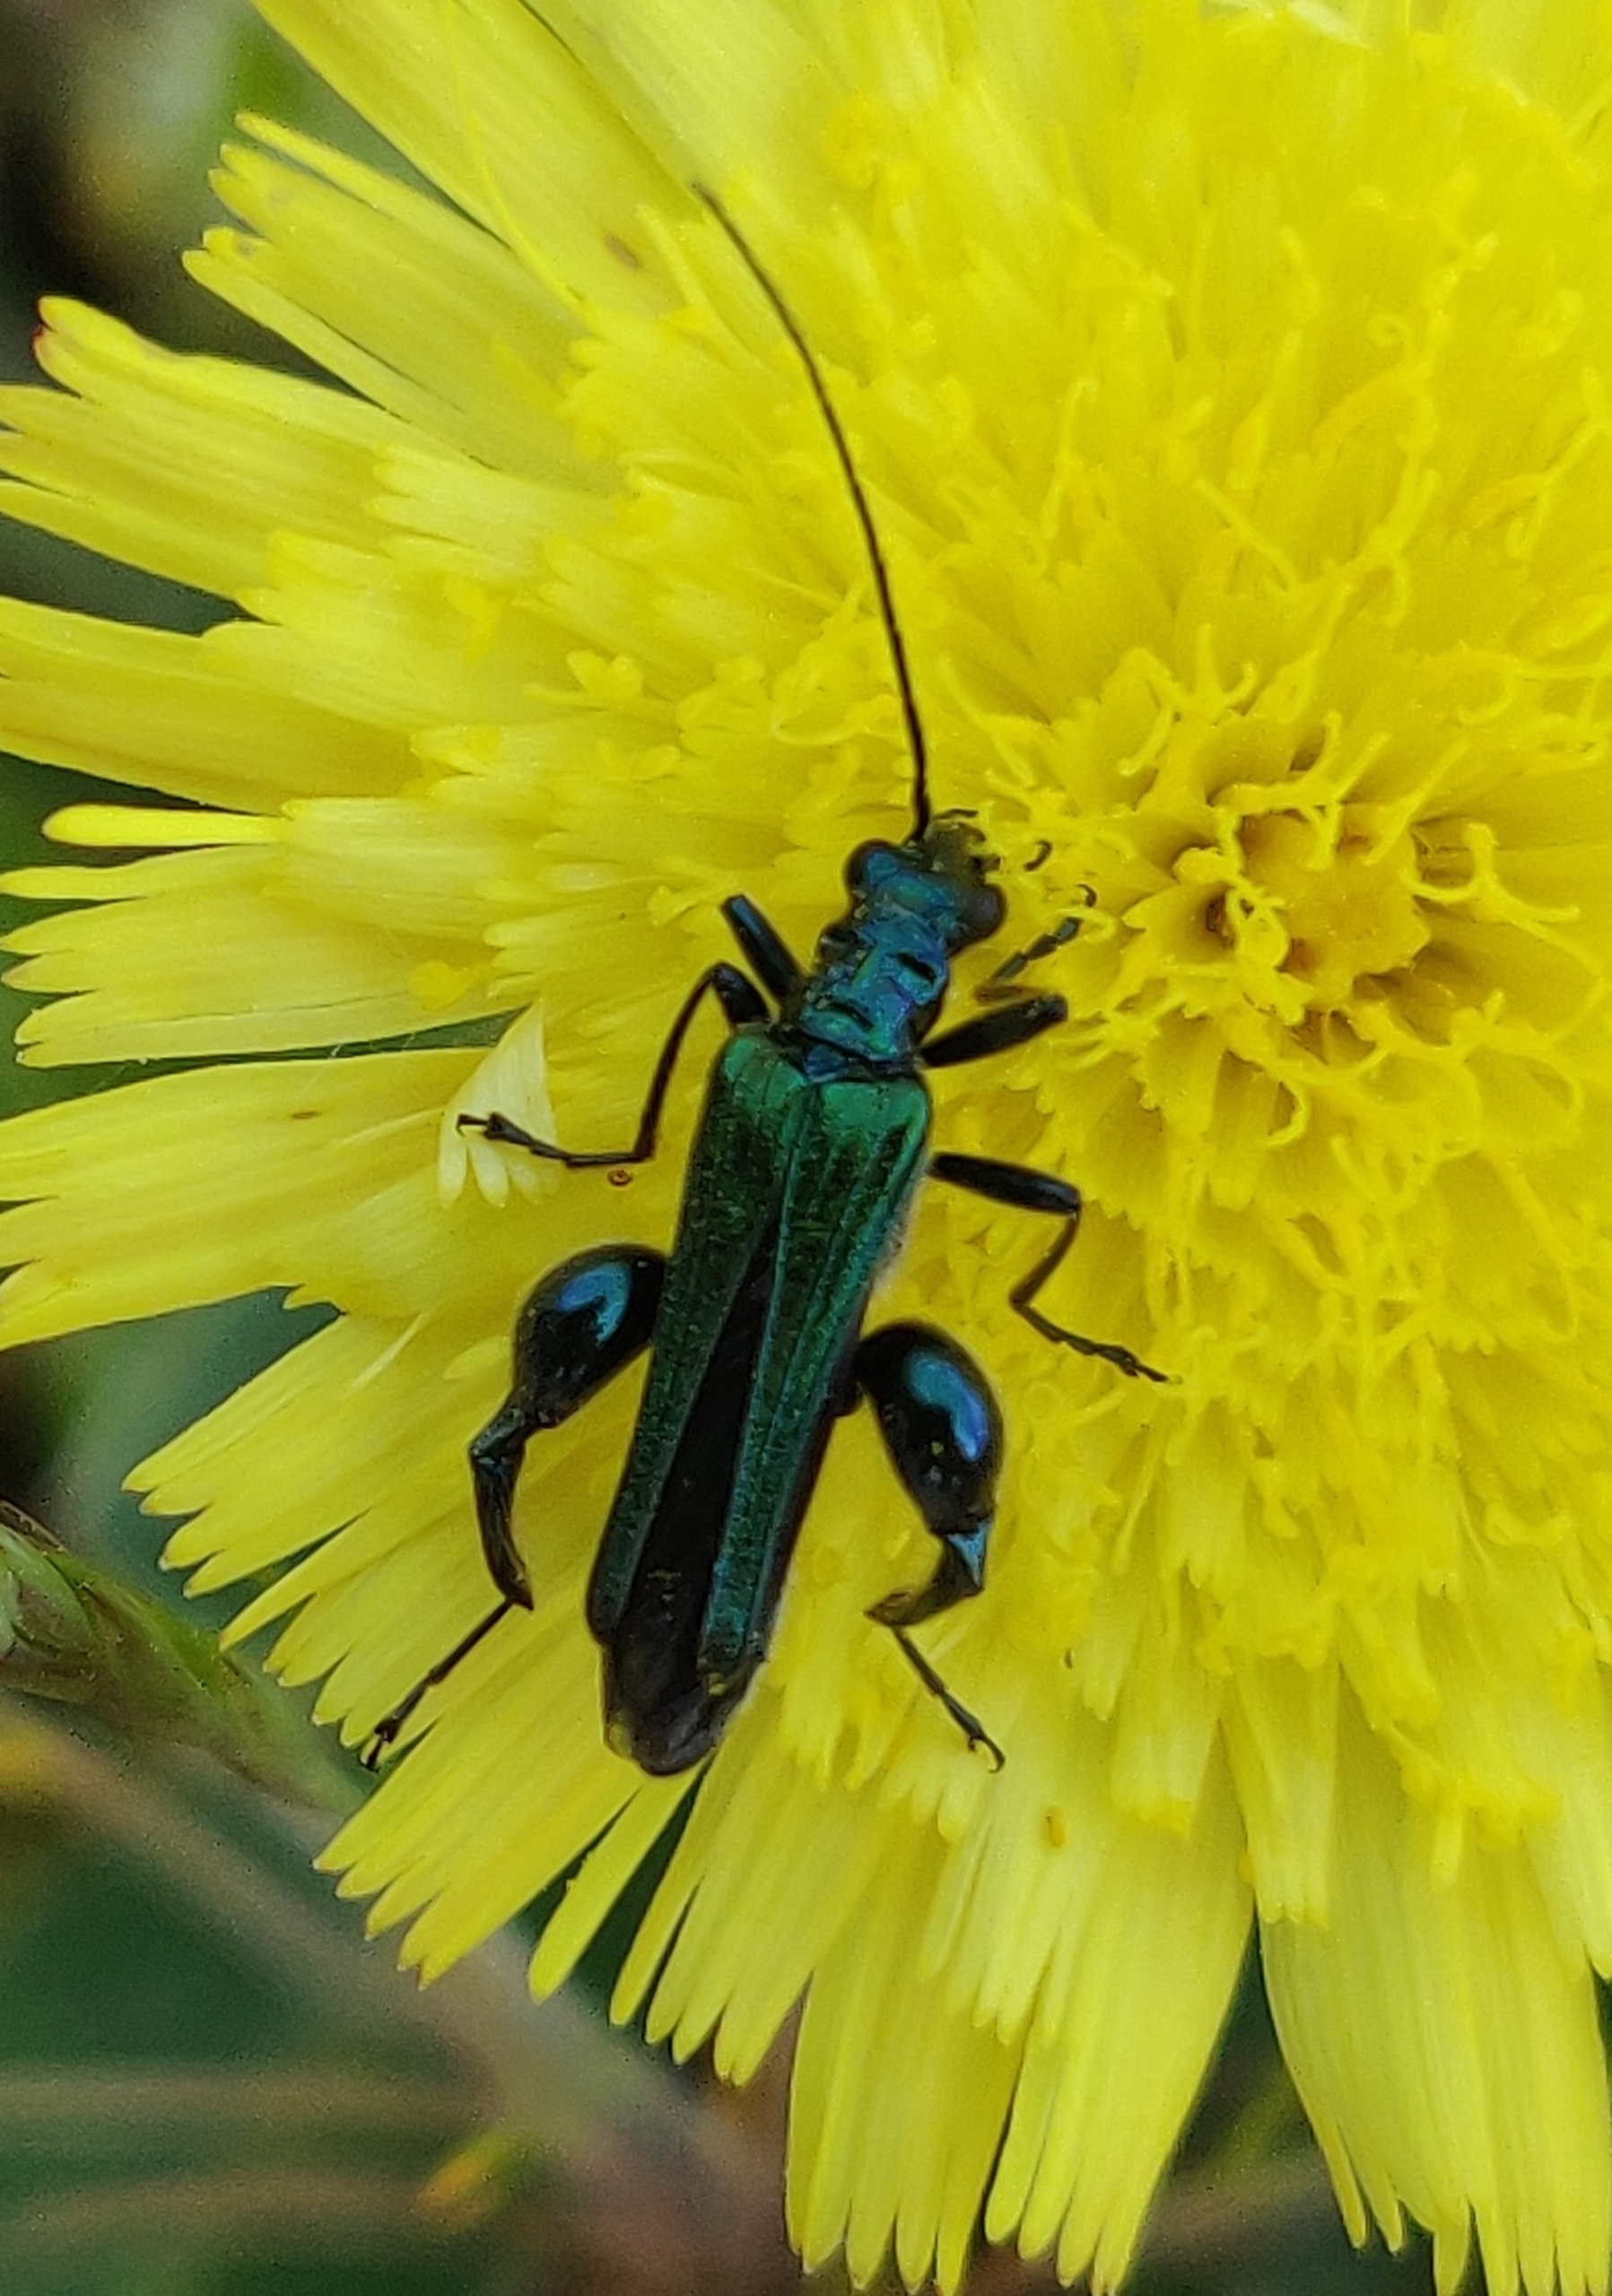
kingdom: Animalia
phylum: Arthropoda
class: Insecta
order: Coleoptera
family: Oedemeridae
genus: Oedemera
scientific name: Oedemera nobilis
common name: Tyklårssolbille
